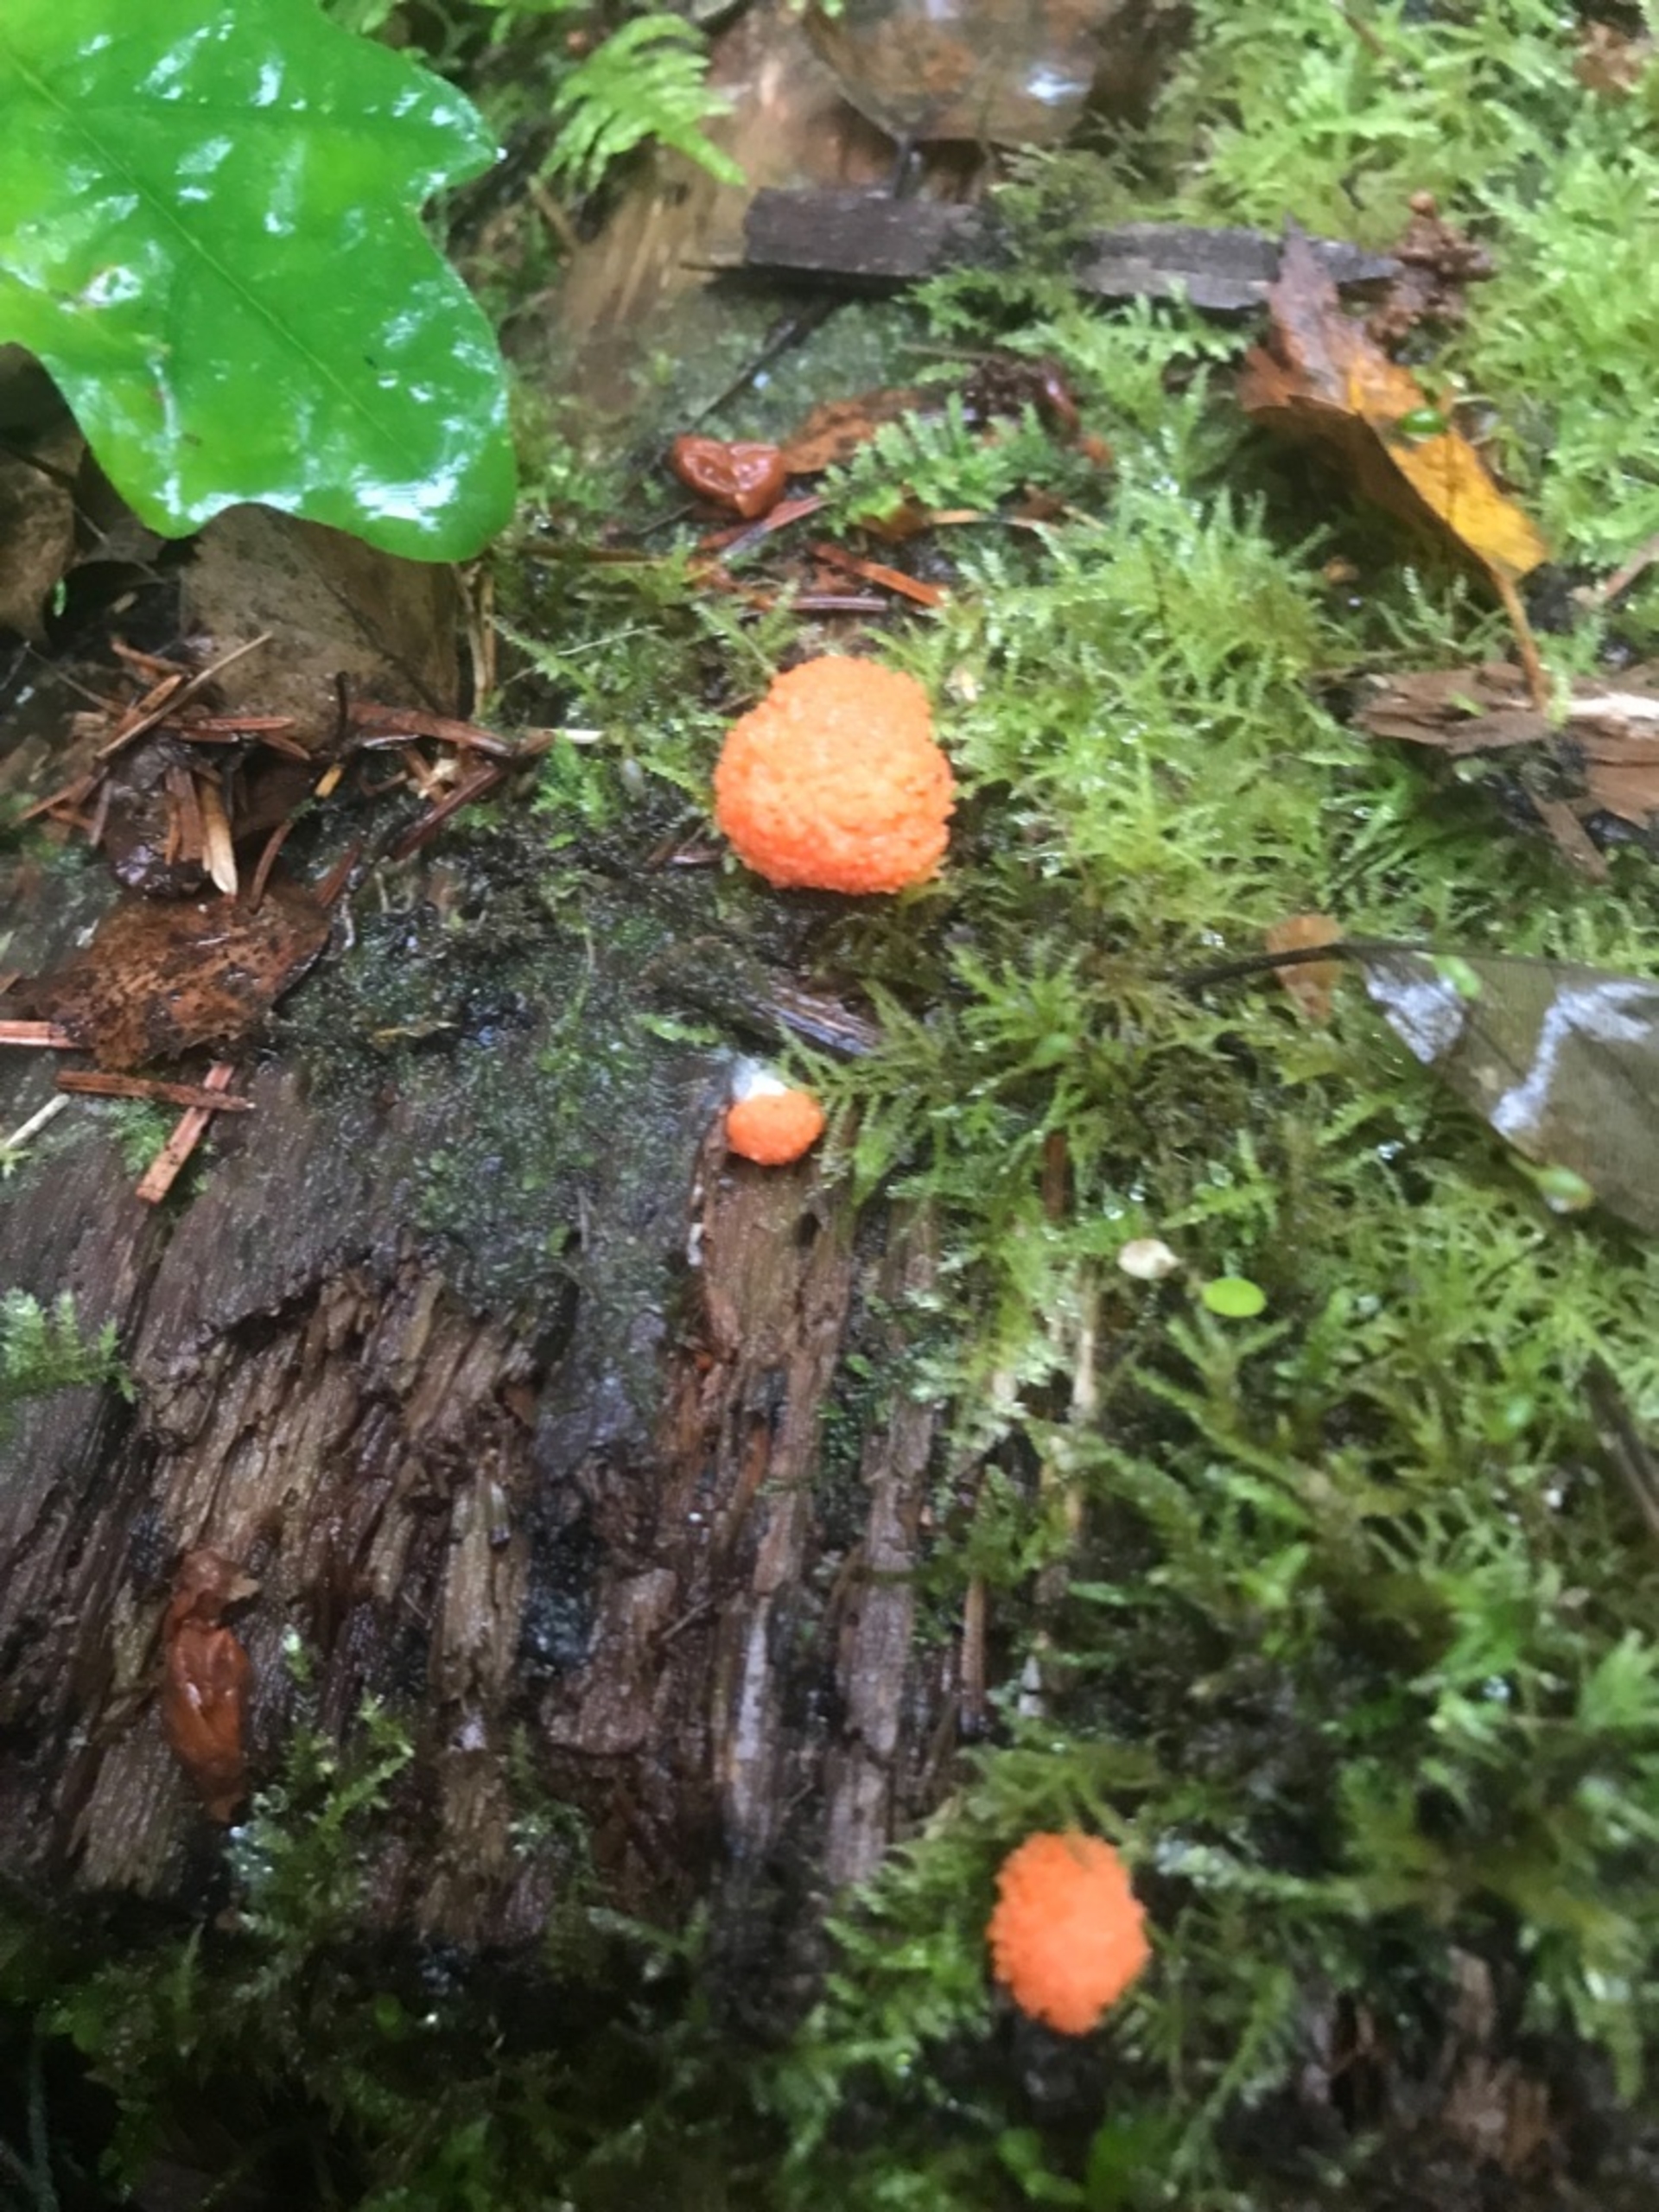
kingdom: Protozoa
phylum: Mycetozoa
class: Myxomycetes
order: Cribrariales
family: Tubiferaceae
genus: Tubifera
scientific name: Tubifera ferruginosa
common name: Kanel-støvrør
